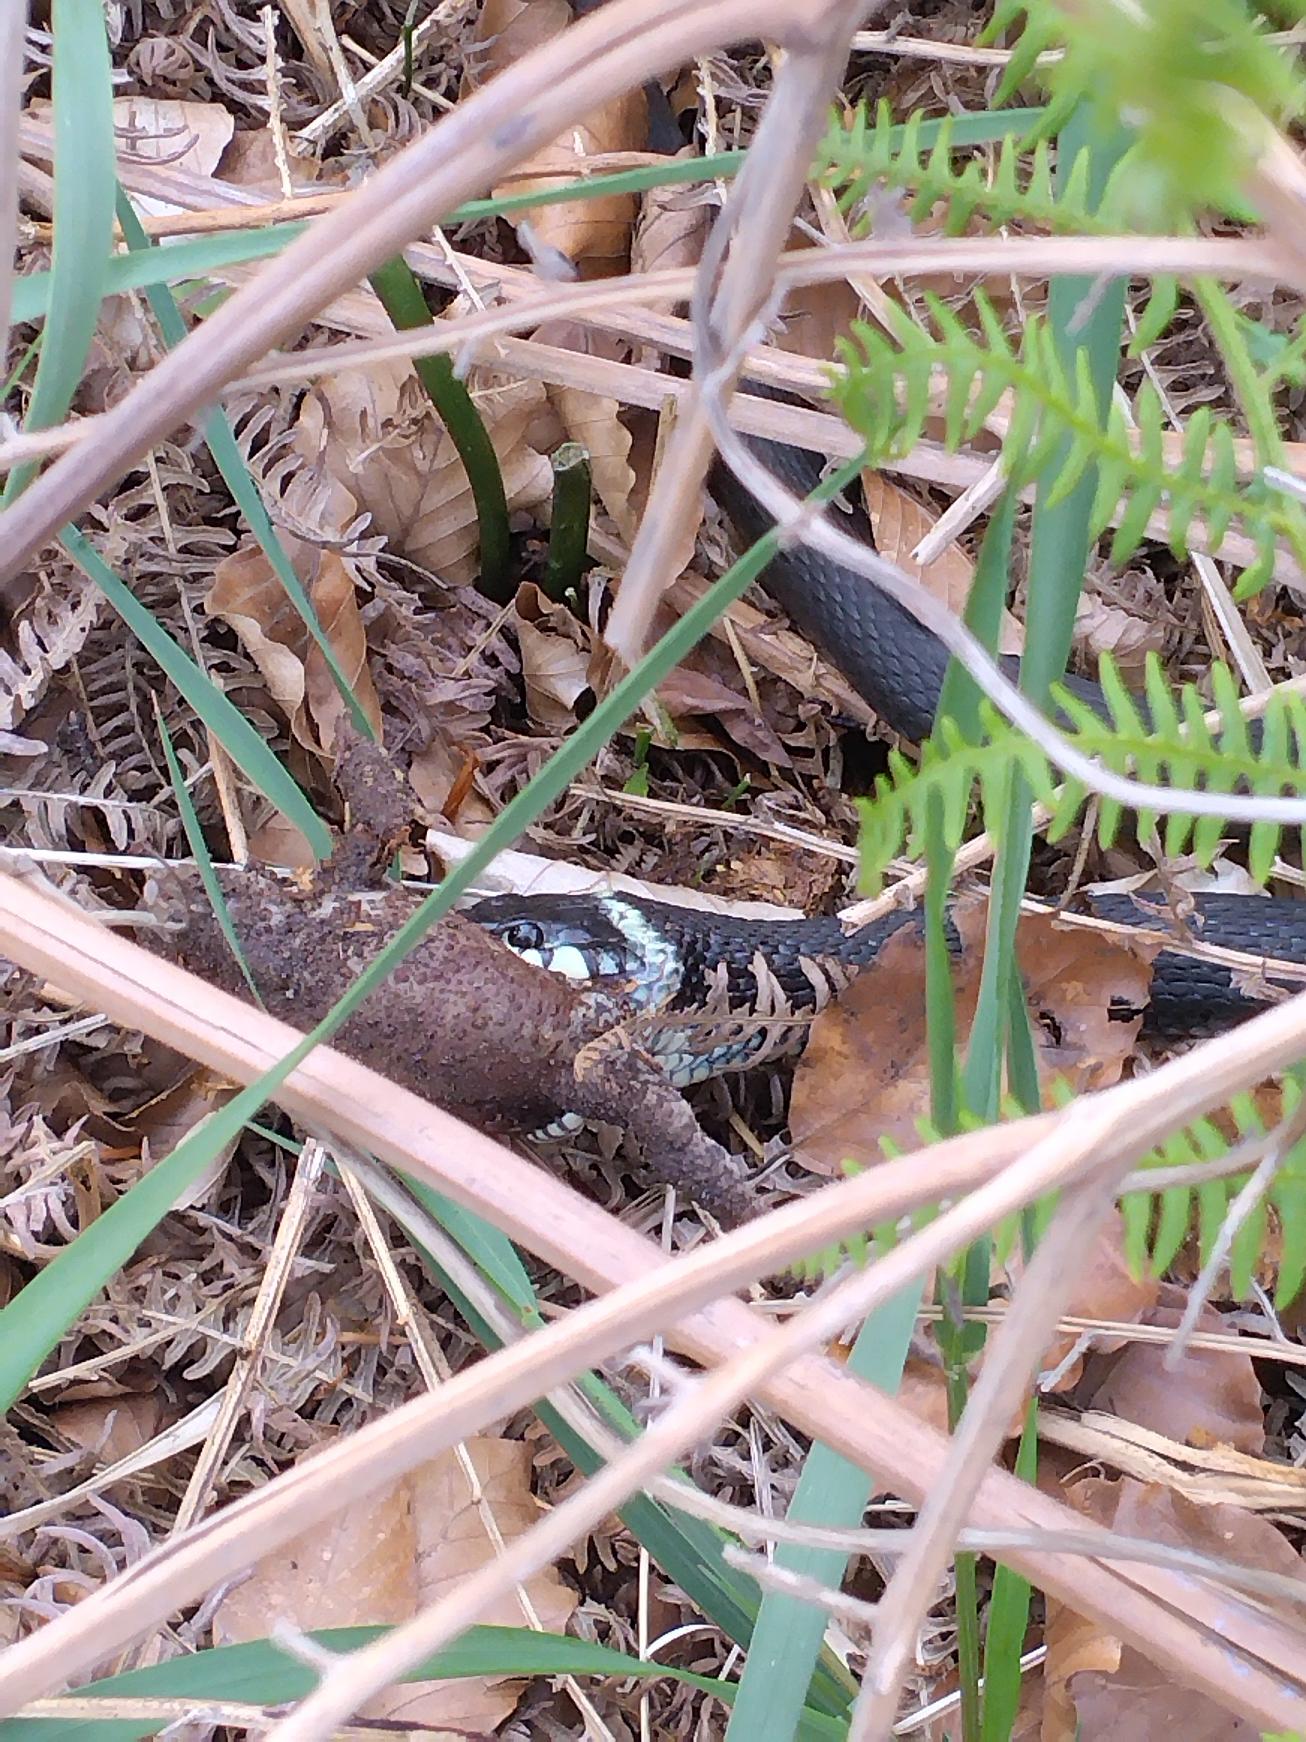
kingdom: Animalia
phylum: Chordata
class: Squamata
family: Colubridae
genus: Natrix
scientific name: Natrix natrix
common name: Snog
